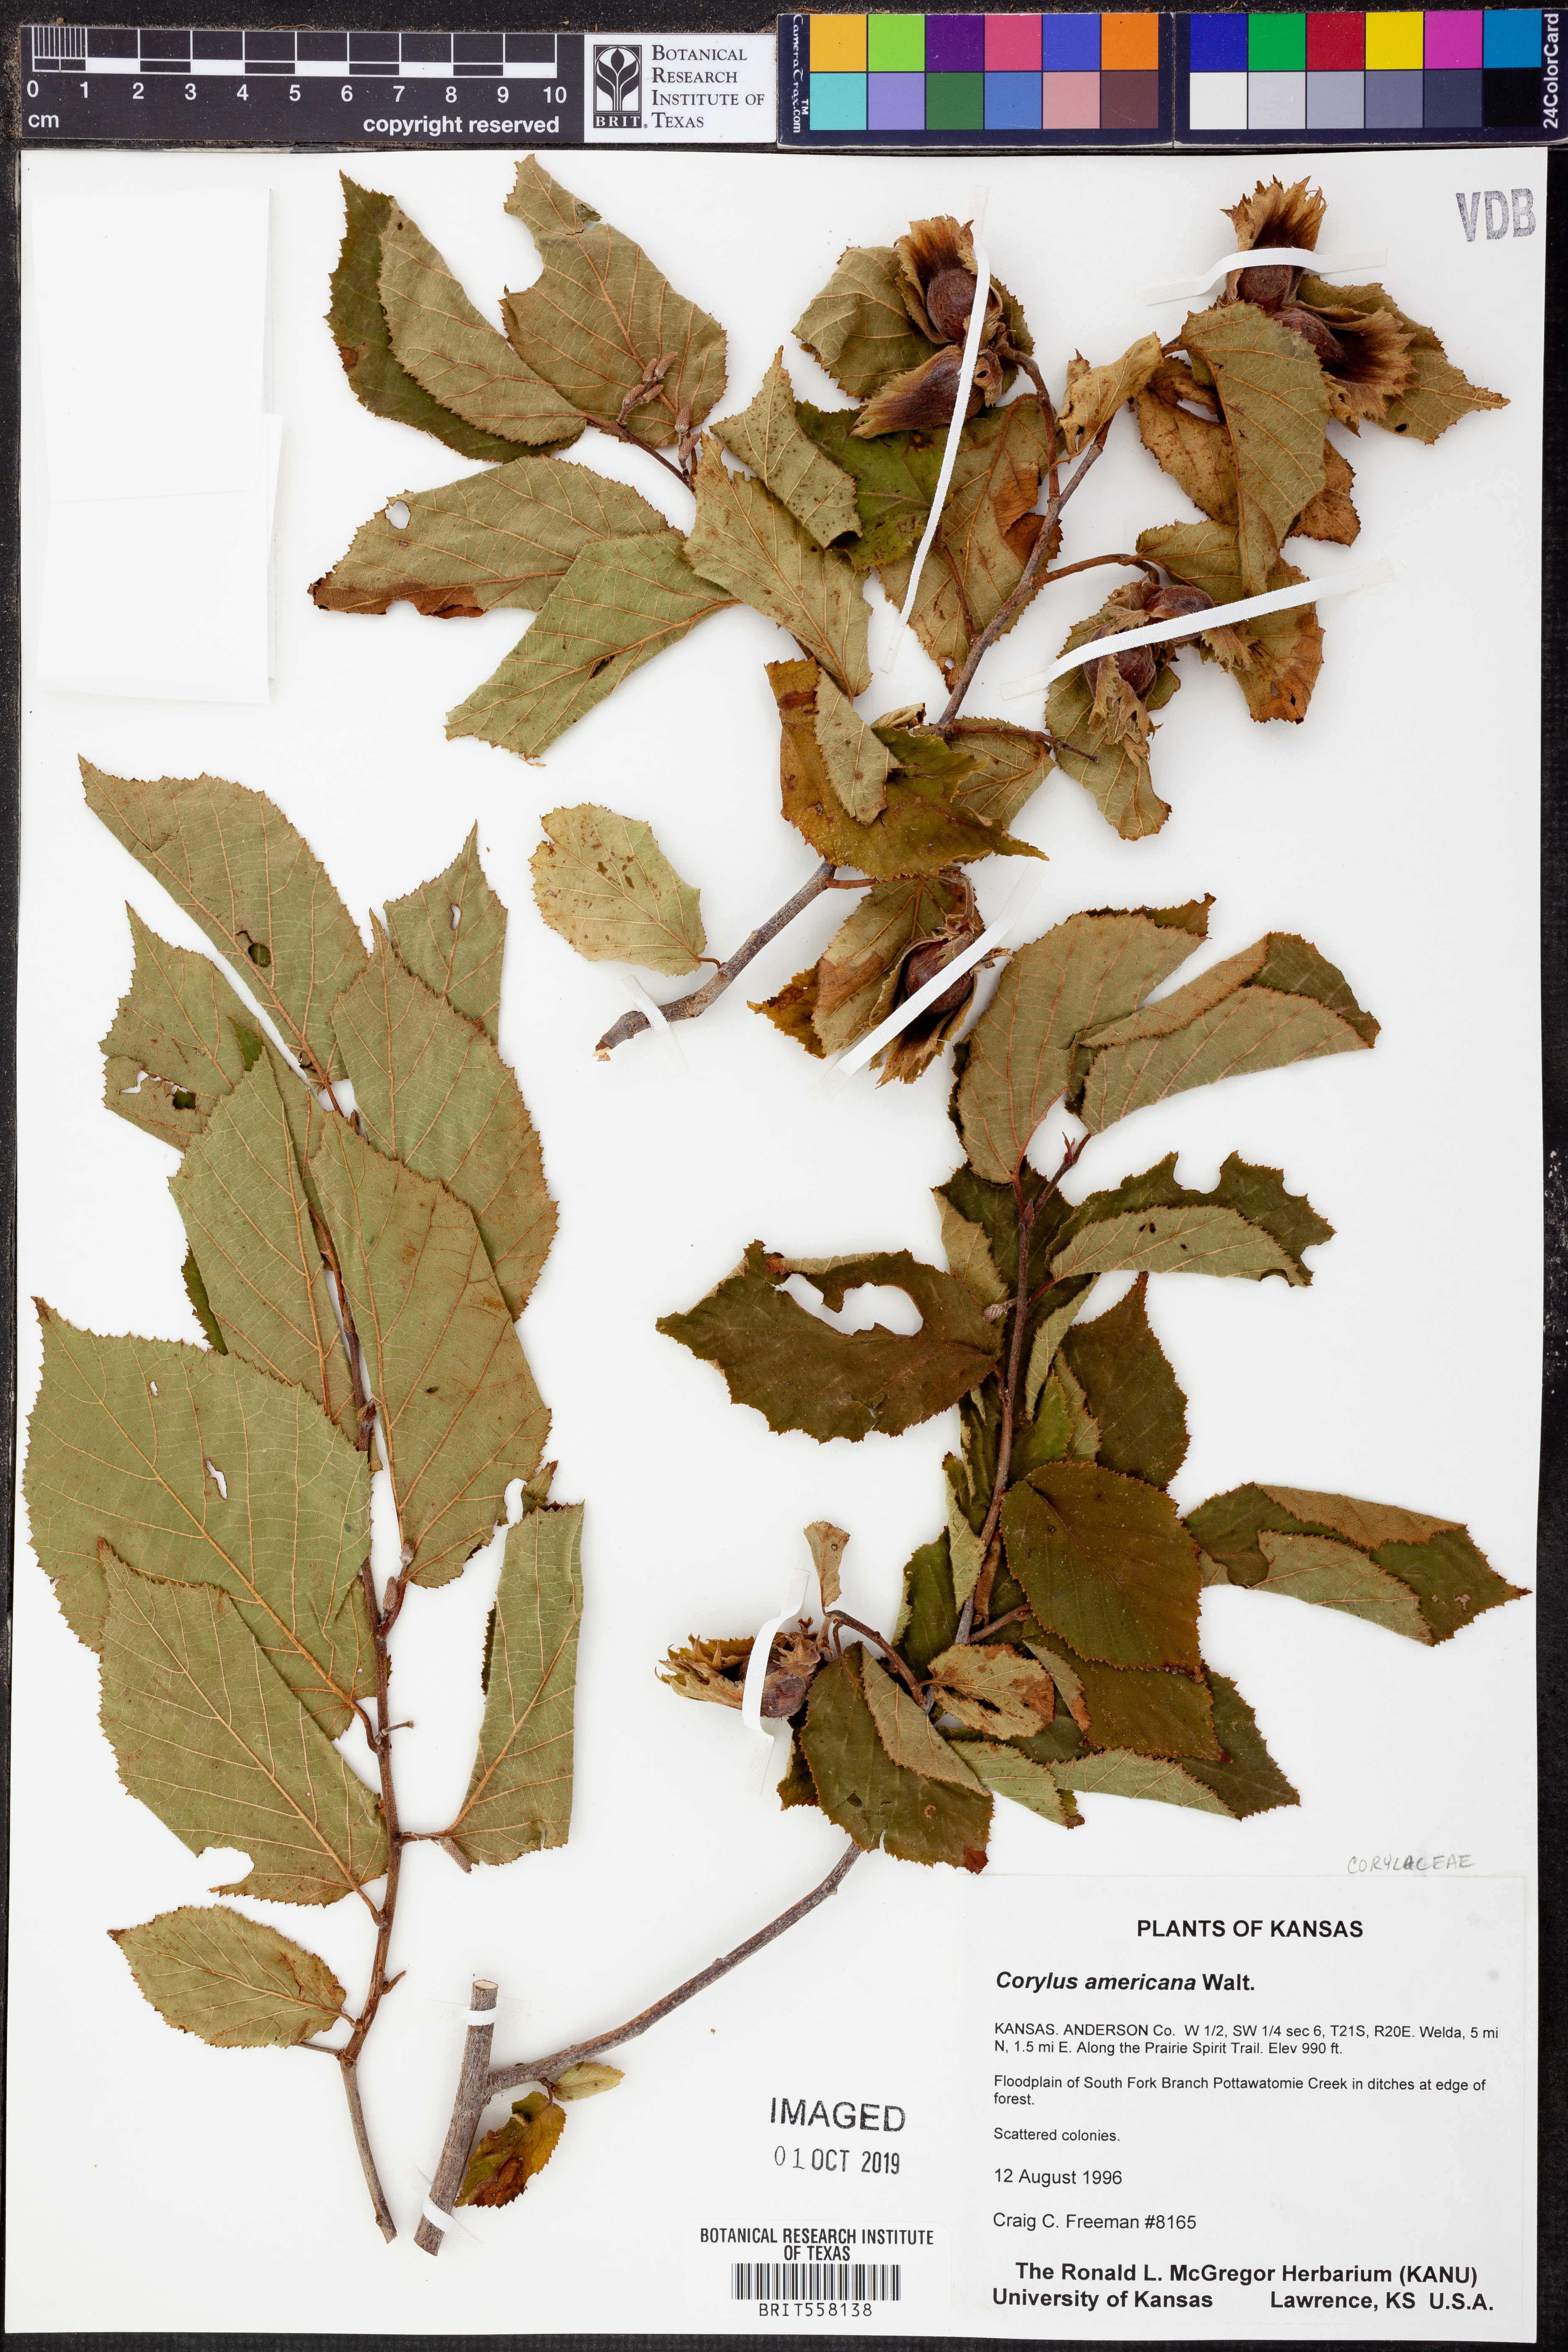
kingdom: Plantae
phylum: Tracheophyta
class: Magnoliopsida
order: Fagales
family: Betulaceae
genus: Corylus
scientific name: Corylus americana
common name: American hazel
